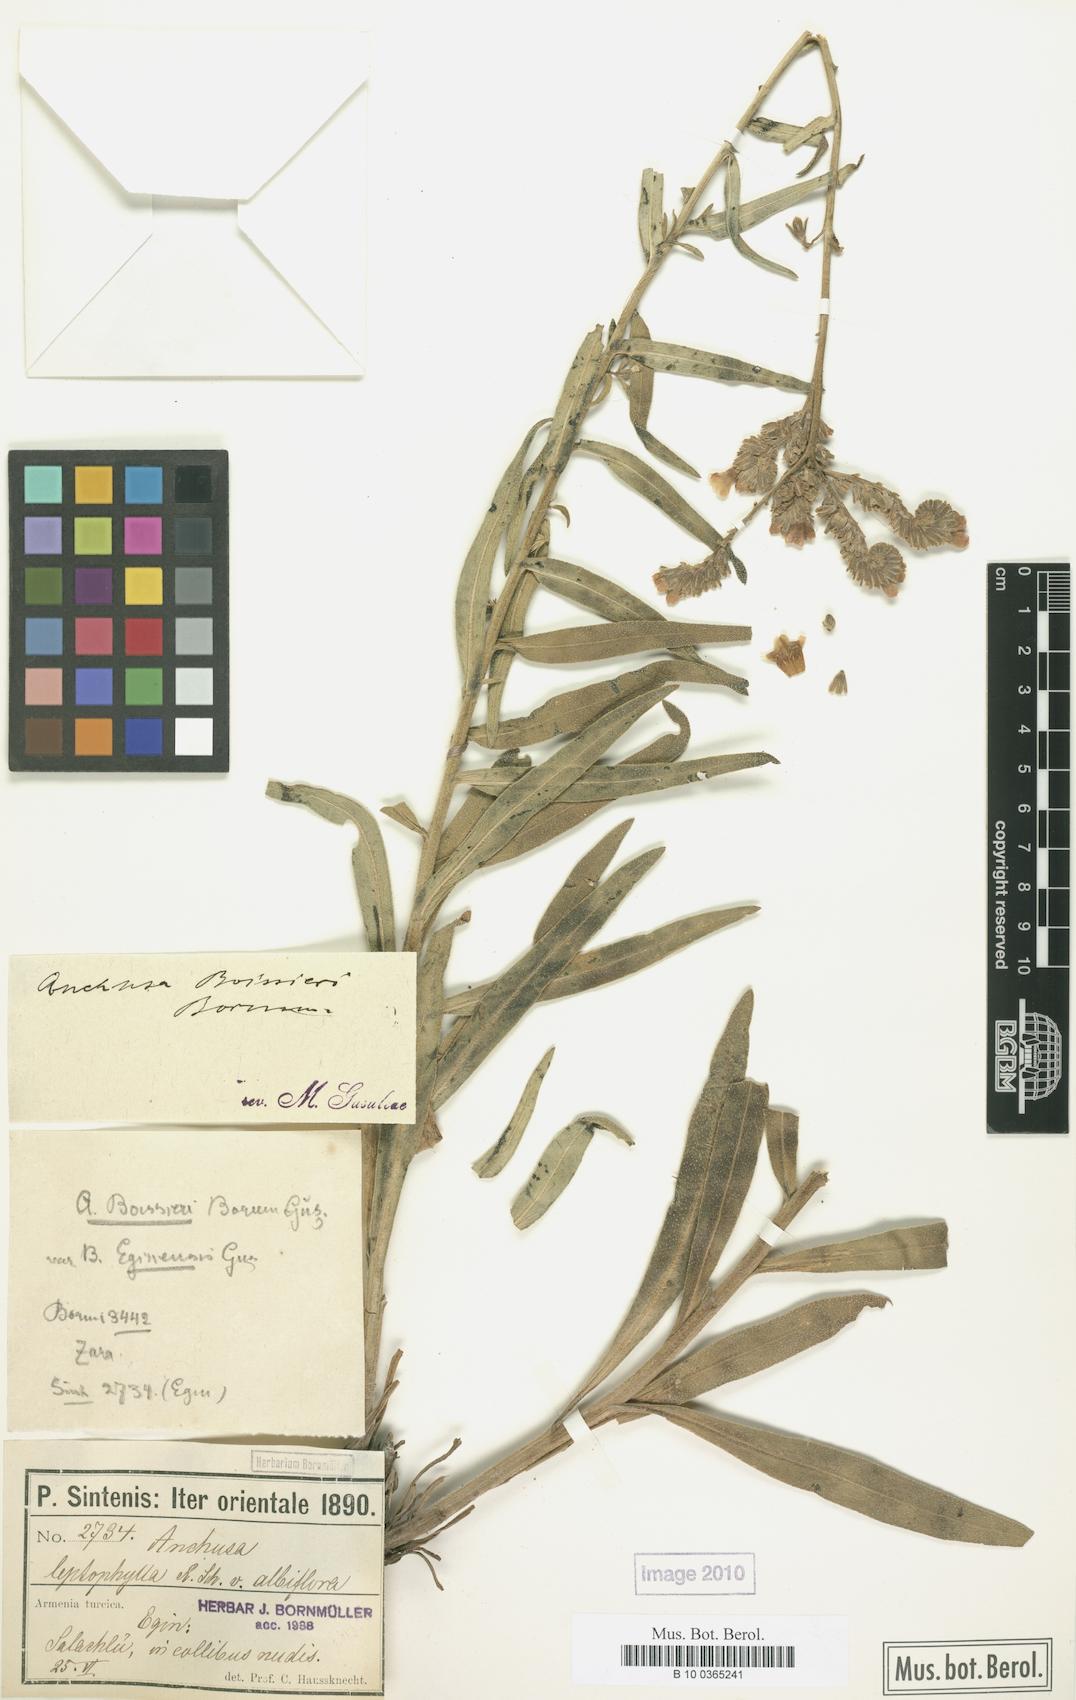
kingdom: Plantae
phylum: Tracheophyta
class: Magnoliopsida
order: Boraginales
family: Boraginaceae
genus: Anchusa
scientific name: Anchusa leptophylla
